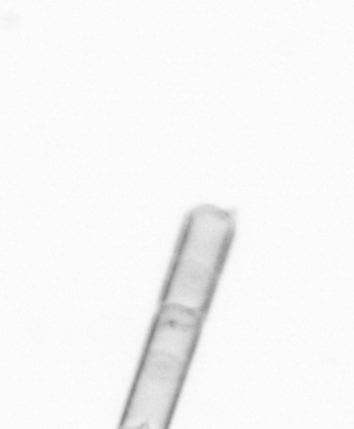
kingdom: Chromista
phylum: Ochrophyta
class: Bacillariophyceae
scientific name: Bacillariophyceae
